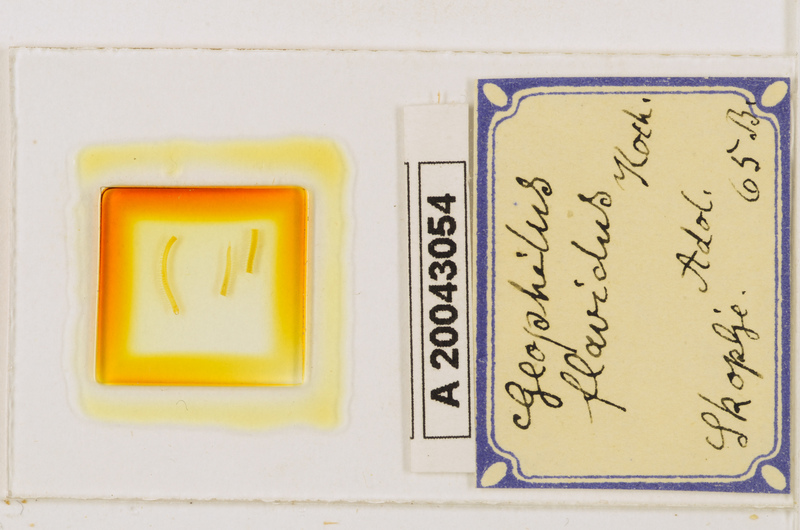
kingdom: Animalia
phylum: Arthropoda
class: Chilopoda
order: Geophilomorpha
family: Geophilidae
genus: Clinopodes
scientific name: Clinopodes flavidus
